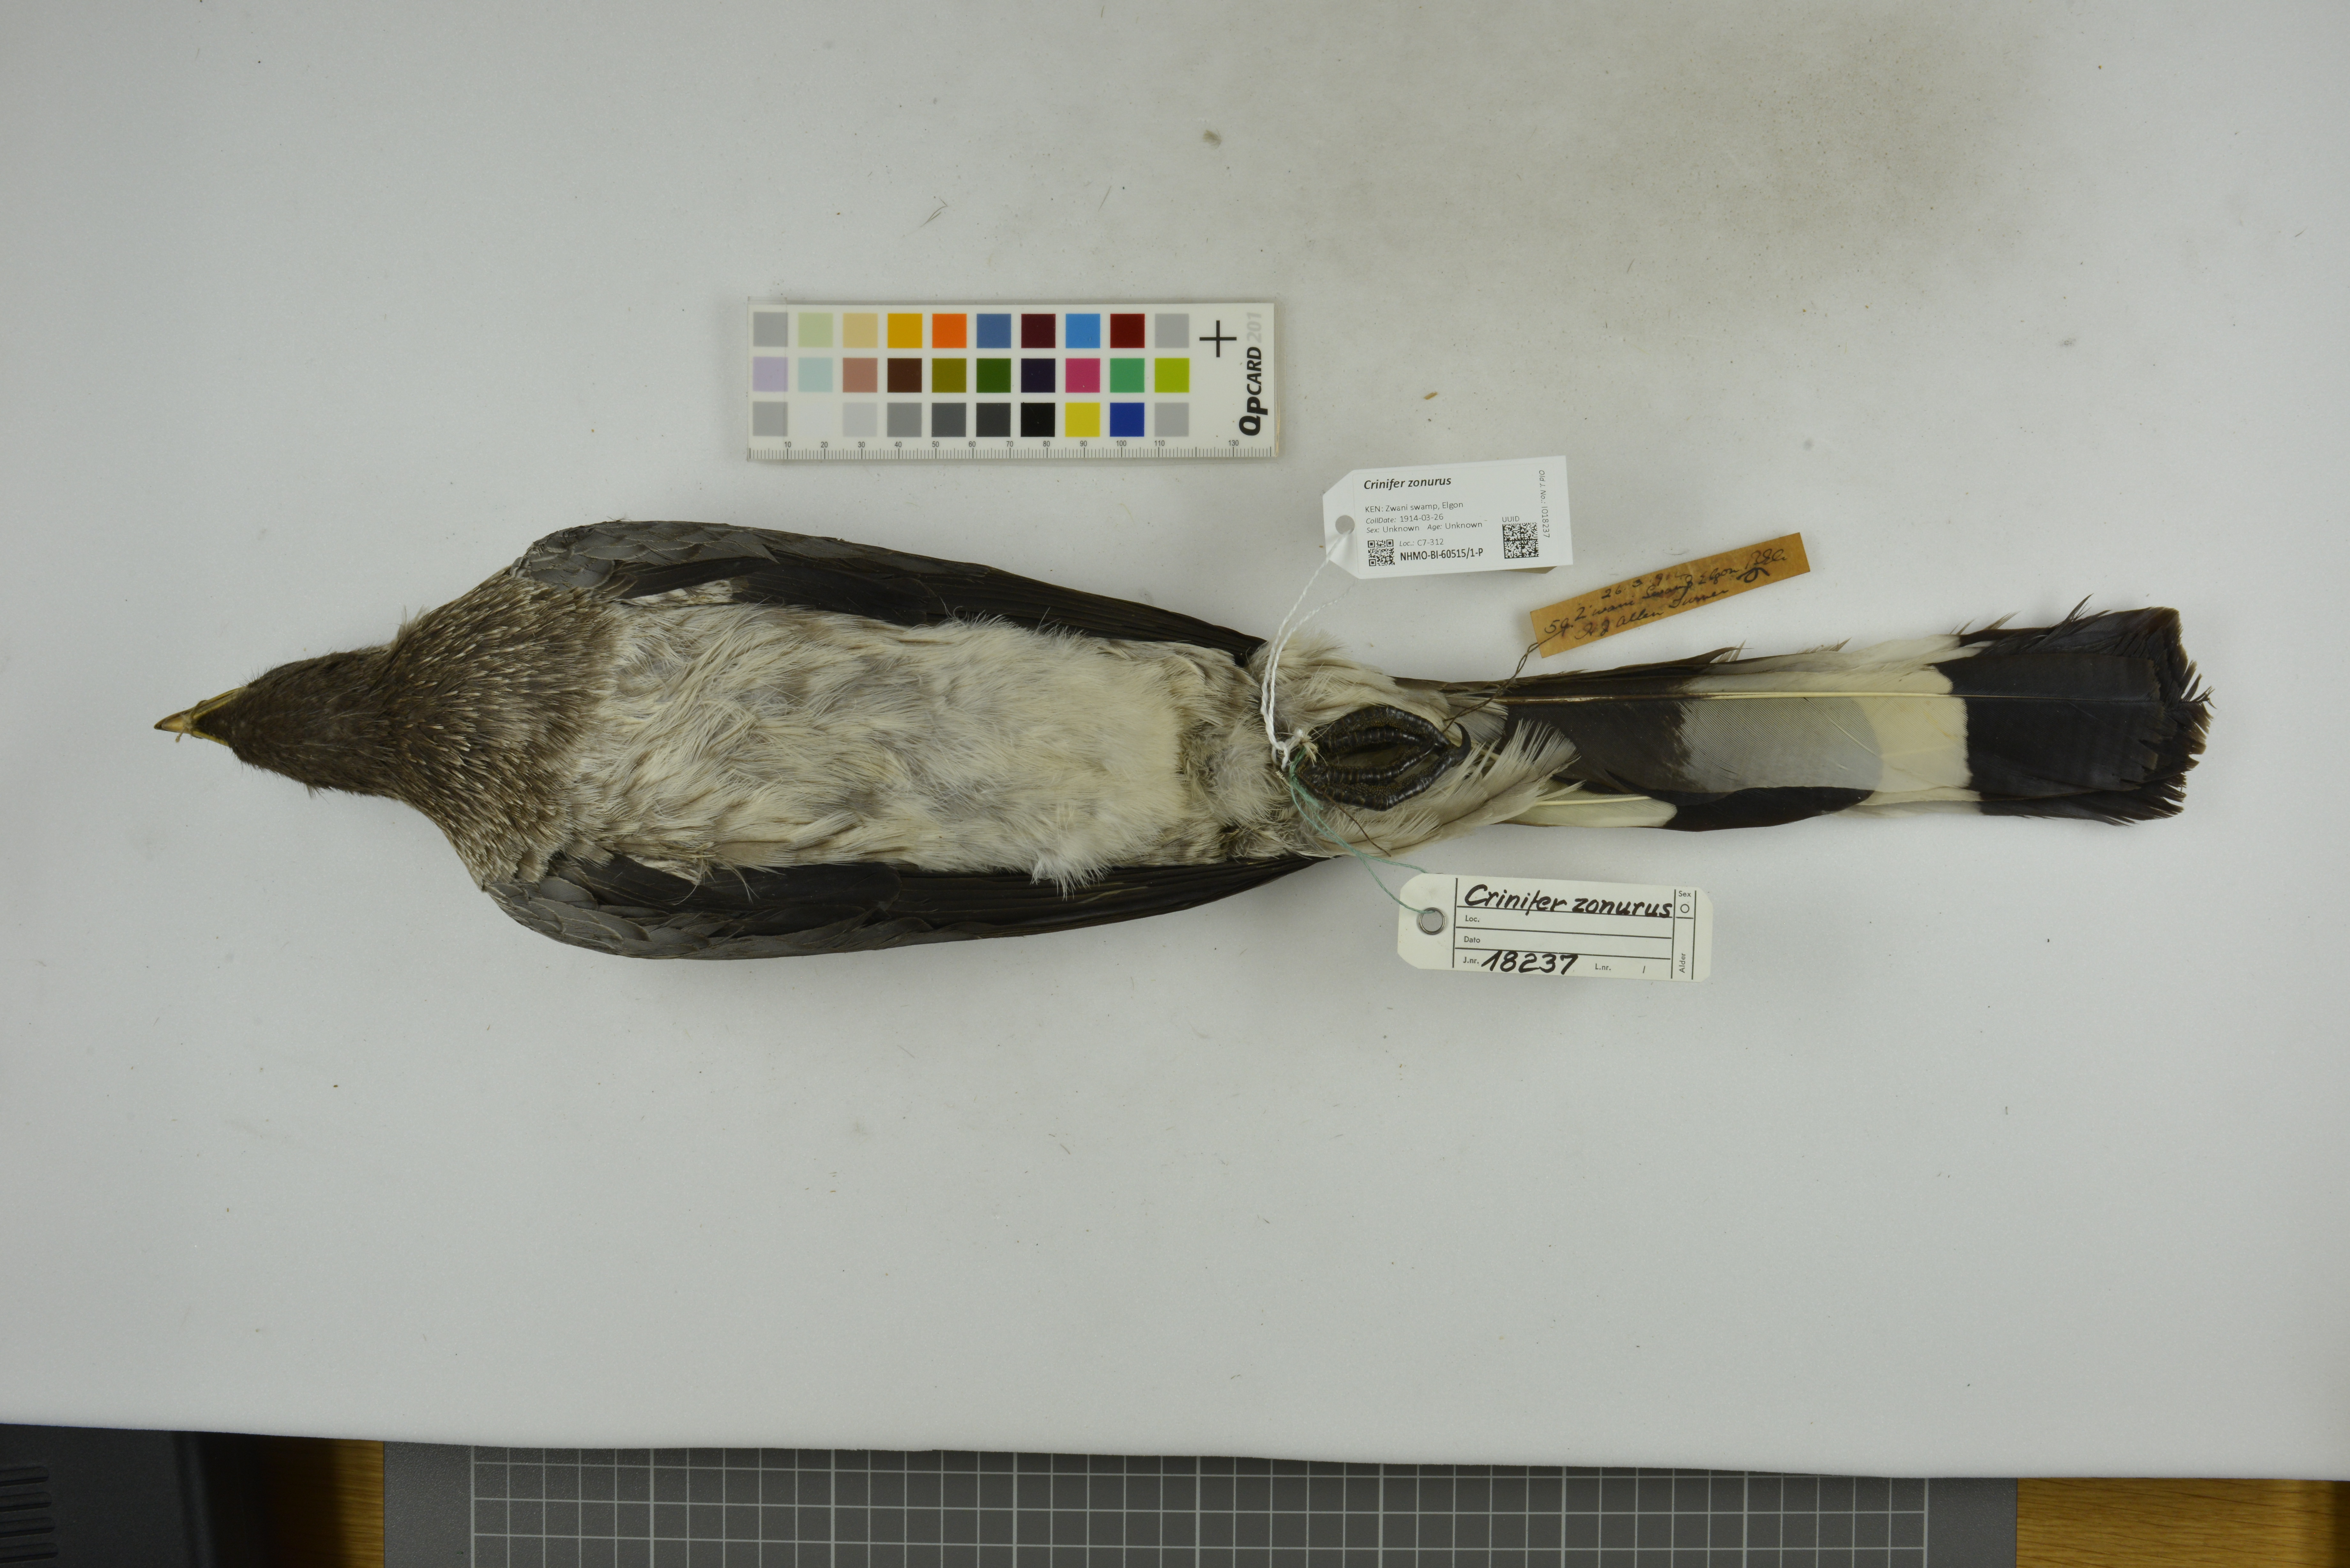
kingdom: Animalia
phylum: Chordata
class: Aves
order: Musophagiformes
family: Musophagidae
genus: Crinifer
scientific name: Crinifer zonurus
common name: Eastern plantain-eater
